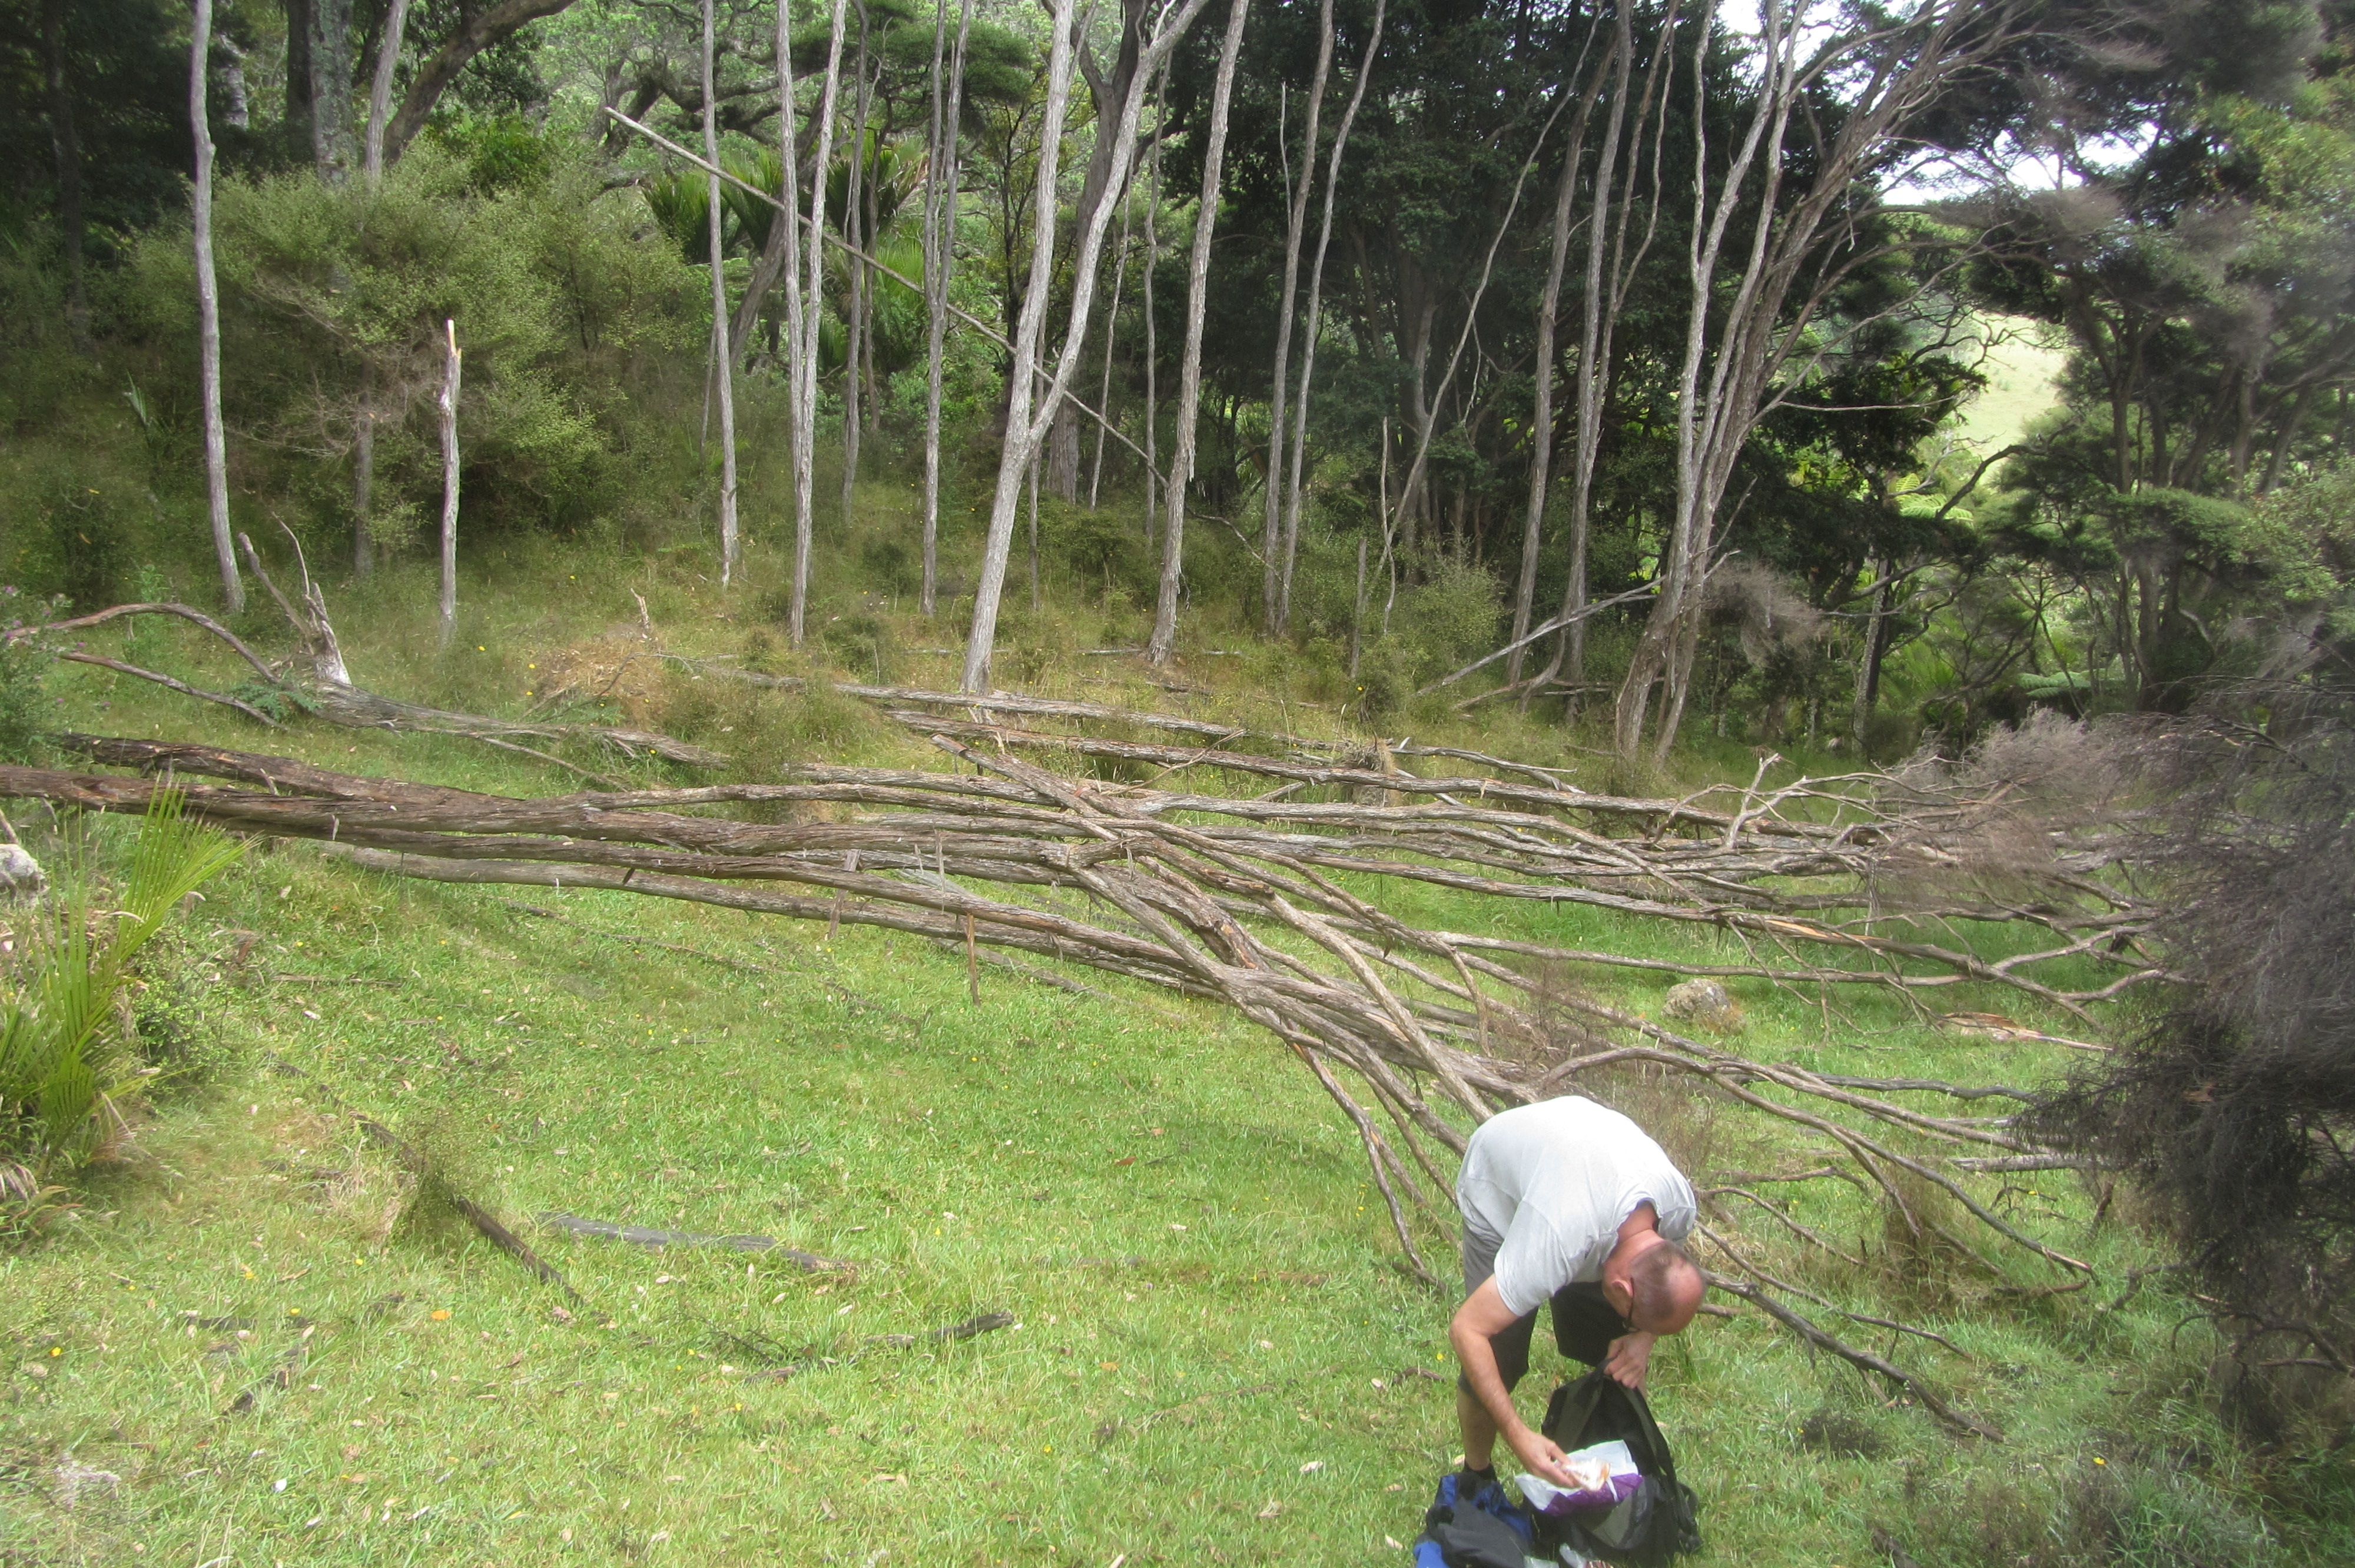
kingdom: Plantae
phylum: Tracheophyta
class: Magnoliopsida
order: Myrtales
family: Myrtaceae
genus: Kunzea
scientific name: Kunzea amathicola
